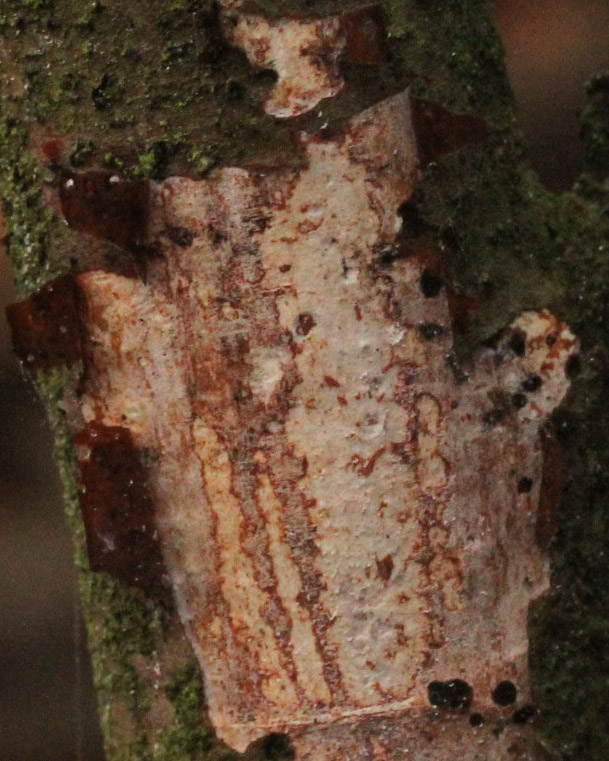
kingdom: Fungi
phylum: Basidiomycota
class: Agaricomycetes
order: Corticiales
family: Vuilleminiaceae
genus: Vuilleminia
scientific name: Vuilleminia
